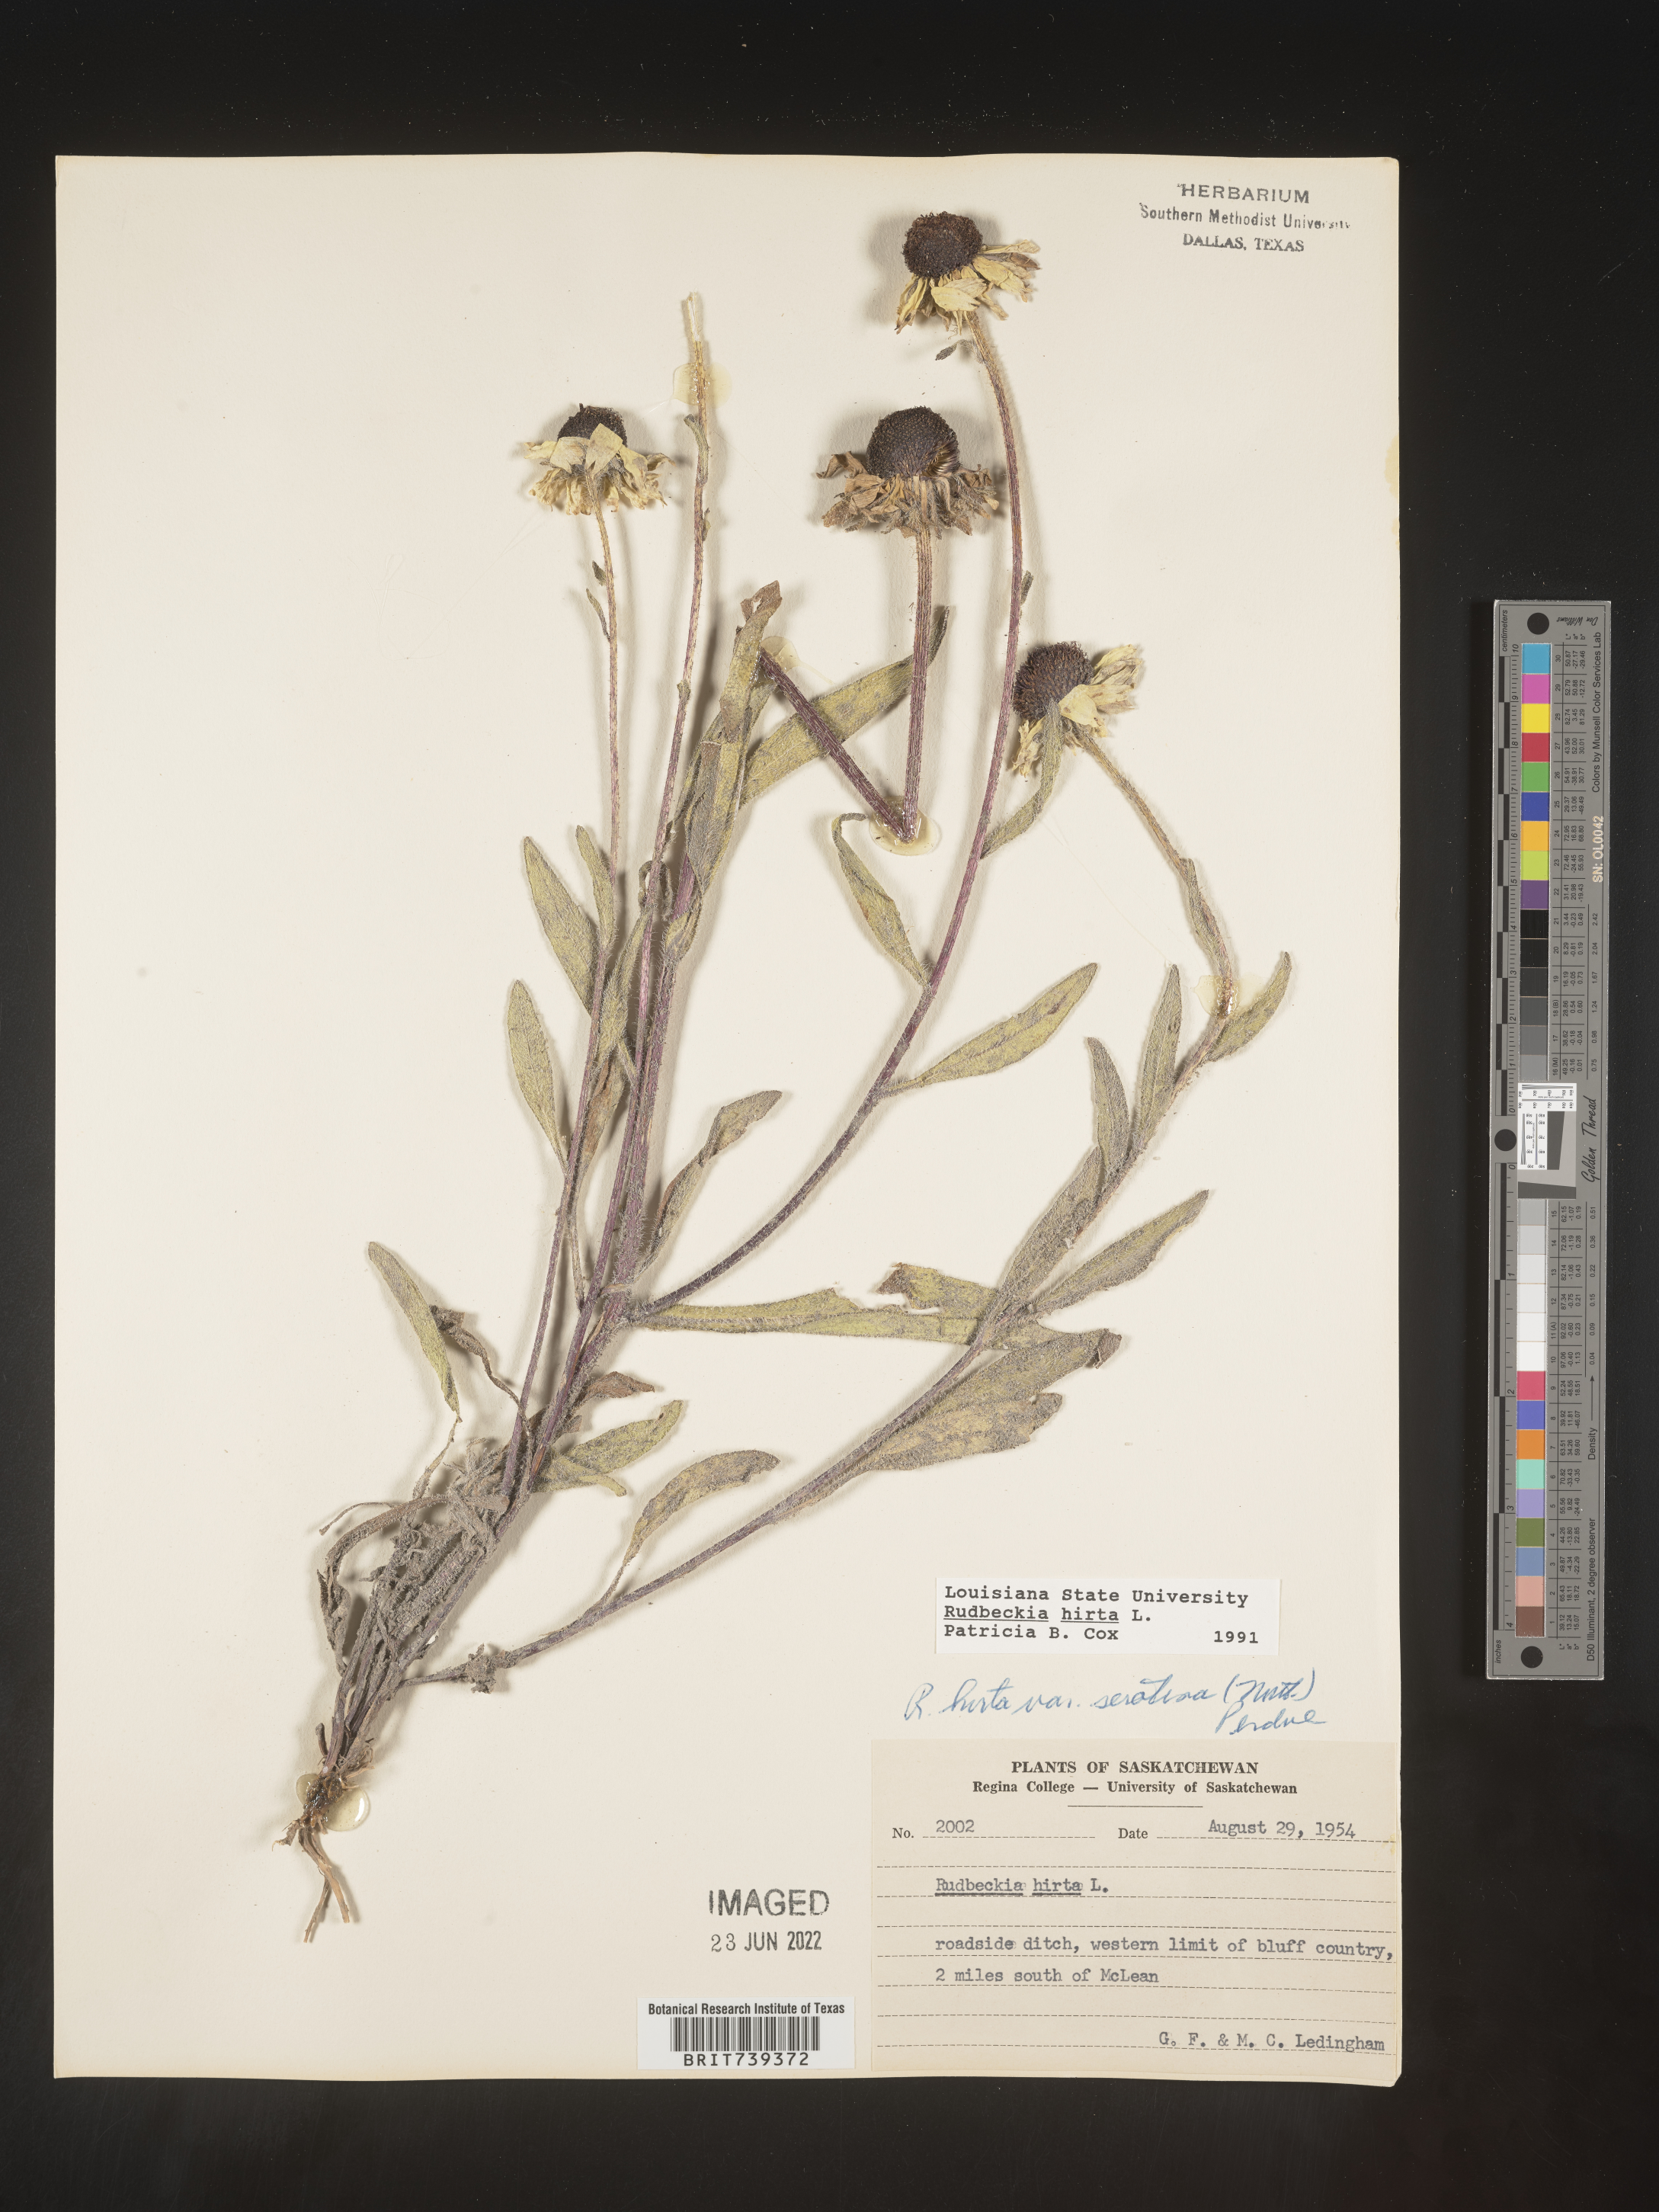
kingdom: Plantae
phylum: Tracheophyta
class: Magnoliopsida
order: Asterales
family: Asteraceae
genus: Rudbeckia
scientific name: Rudbeckia hirta
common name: Black-eyed-susan
